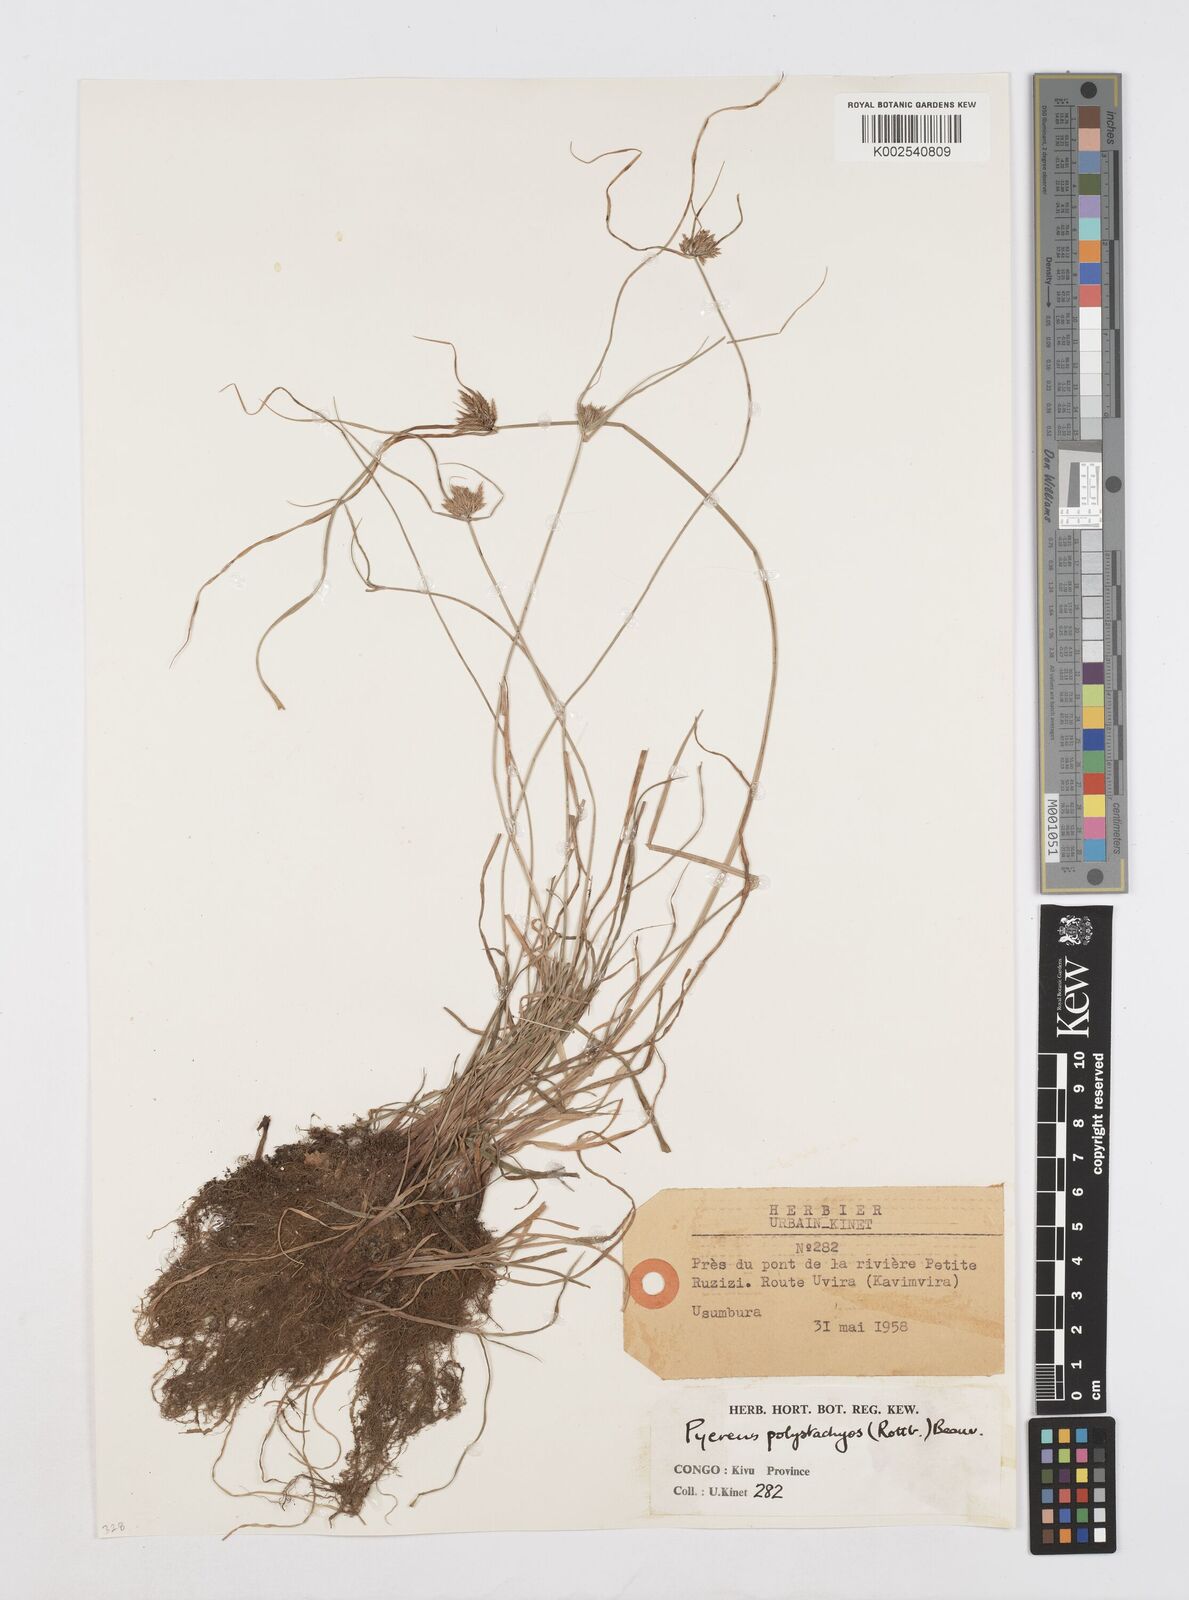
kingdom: Plantae
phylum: Tracheophyta
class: Liliopsida
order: Poales
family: Cyperaceae
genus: Cyperus
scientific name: Cyperus polystachyos
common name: Bunchy flat sedge
